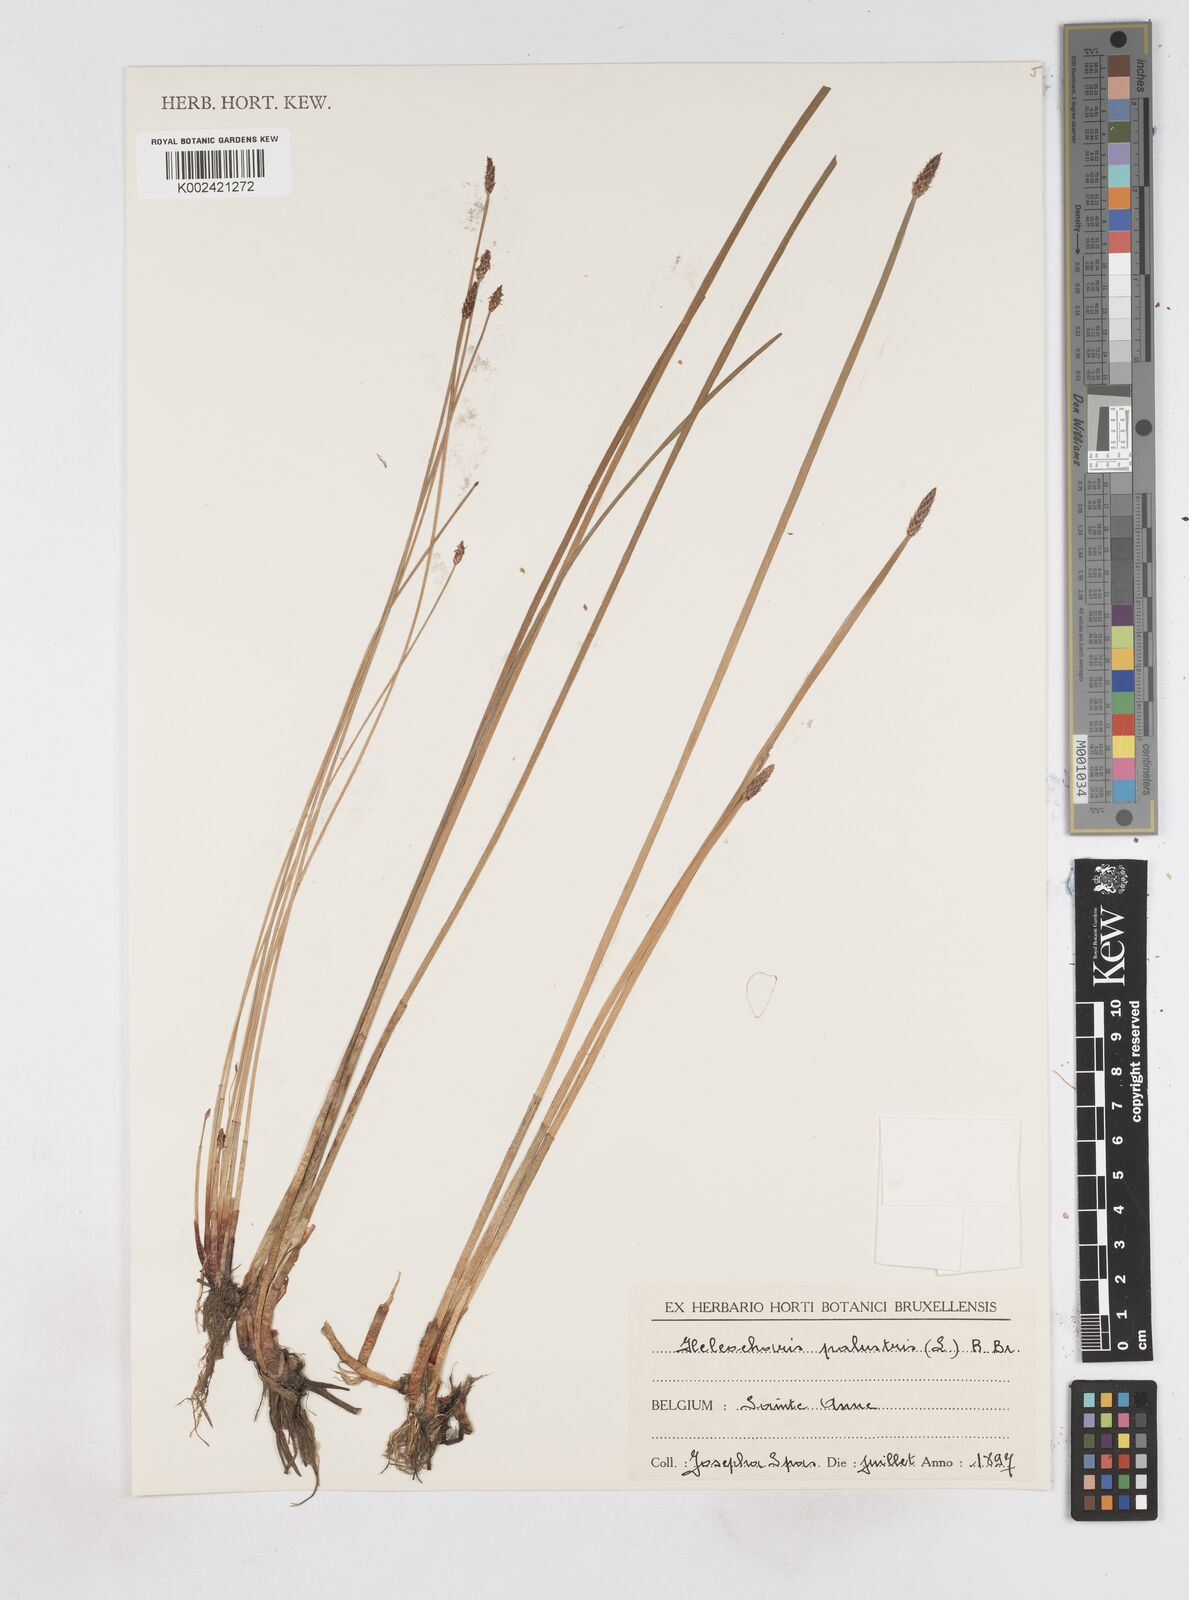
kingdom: Plantae
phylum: Tracheophyta
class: Liliopsida
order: Poales
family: Cyperaceae
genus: Eleocharis
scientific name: Eleocharis palustris
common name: Common spike-rush
